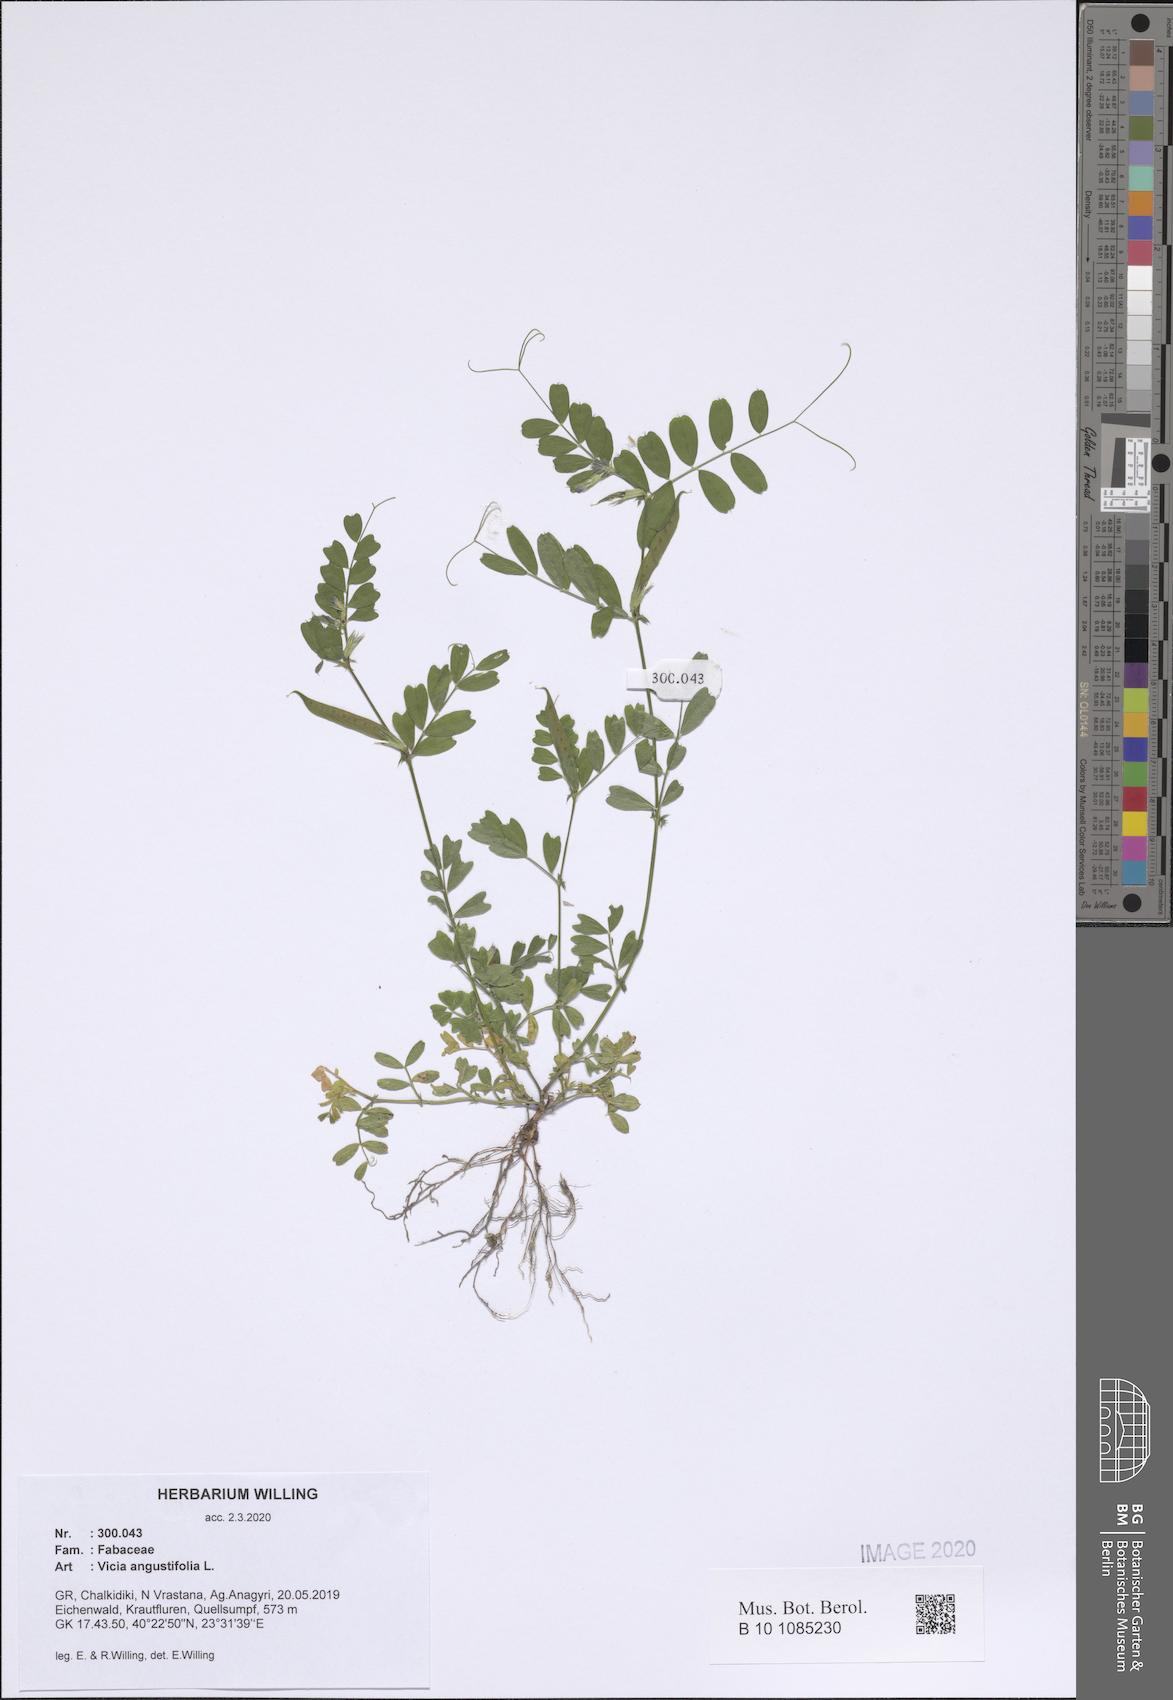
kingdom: Plantae
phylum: Tracheophyta
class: Magnoliopsida
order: Fabales
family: Fabaceae
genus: Vicia
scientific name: Vicia sativa
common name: Garden vetch
